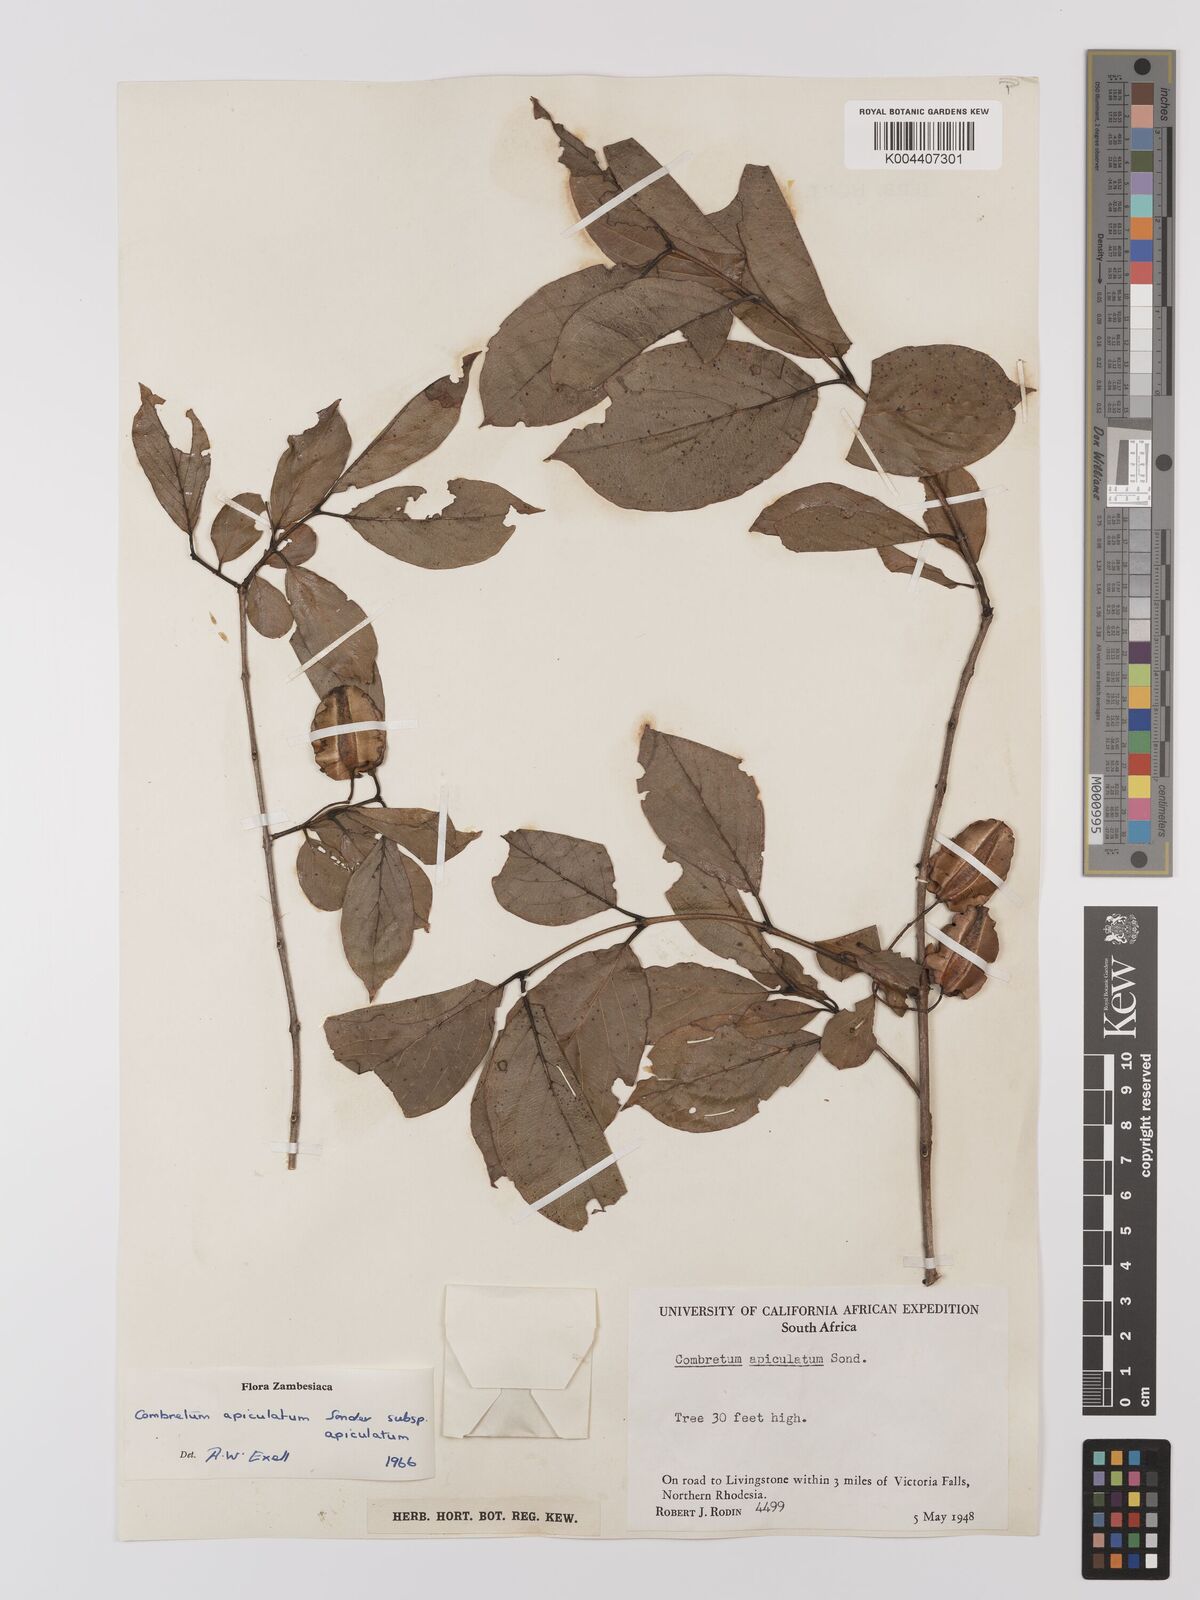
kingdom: Plantae
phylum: Tracheophyta
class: Magnoliopsida
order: Myrtales
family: Combretaceae
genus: Combretum
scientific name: Combretum apiculatum
